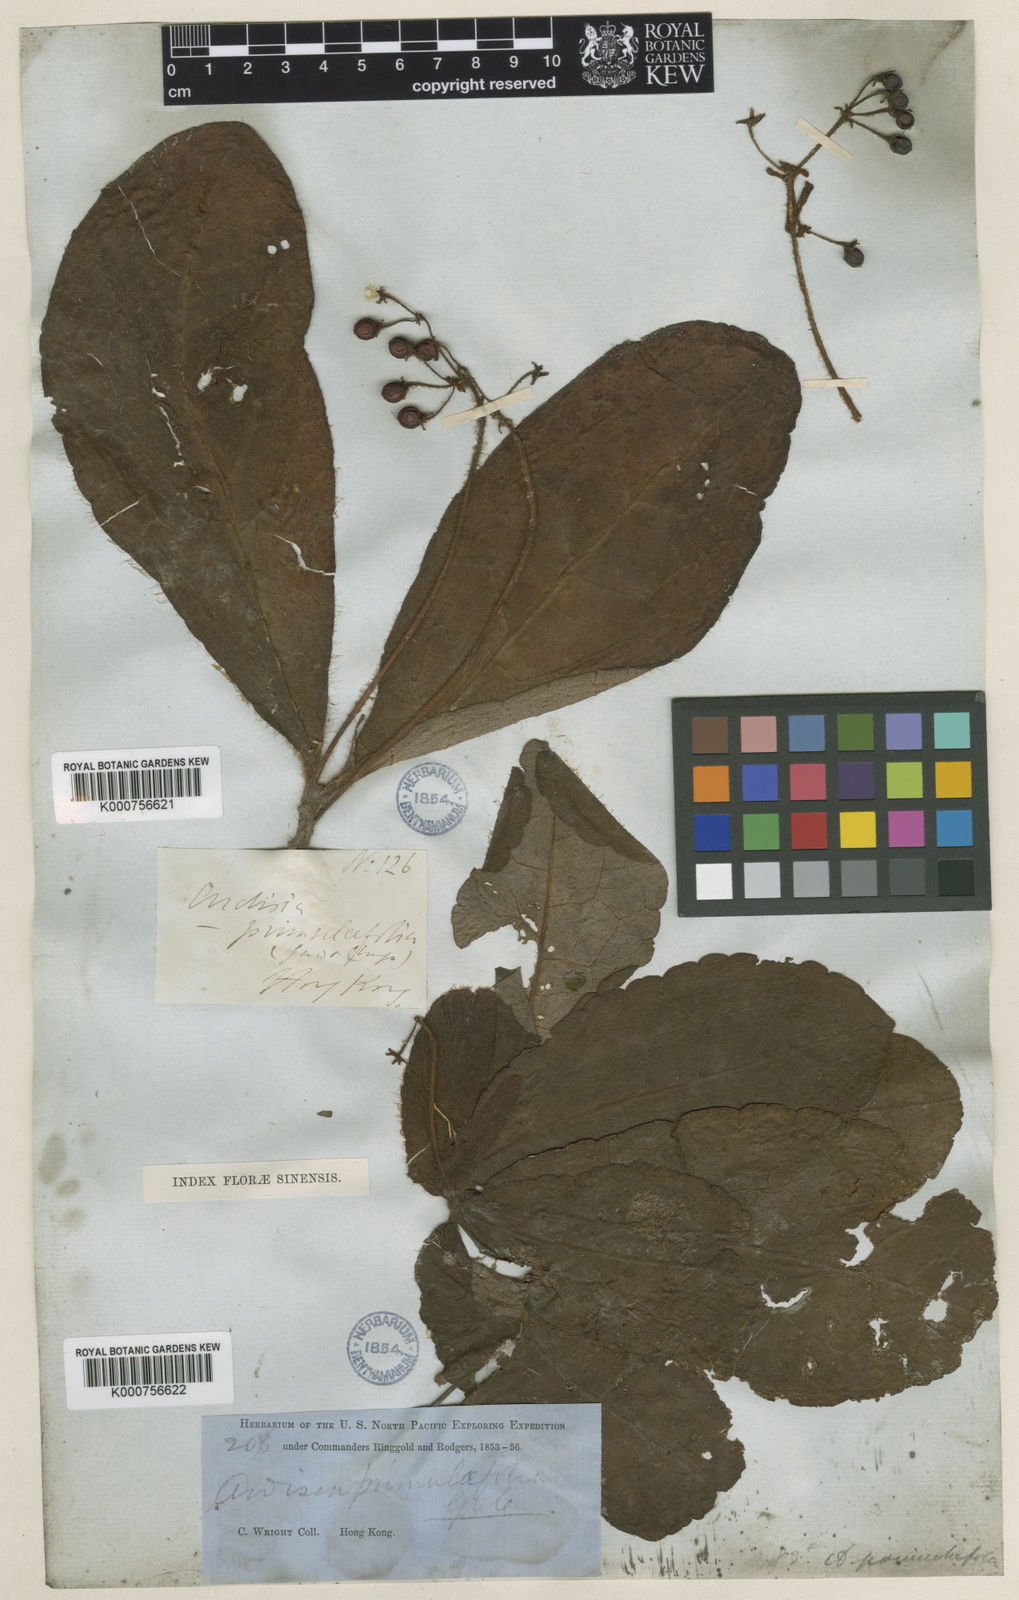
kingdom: Plantae
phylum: Tracheophyta
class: Magnoliopsida
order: Ericales
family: Primulaceae
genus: Ardisia
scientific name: Ardisia primulifolia
